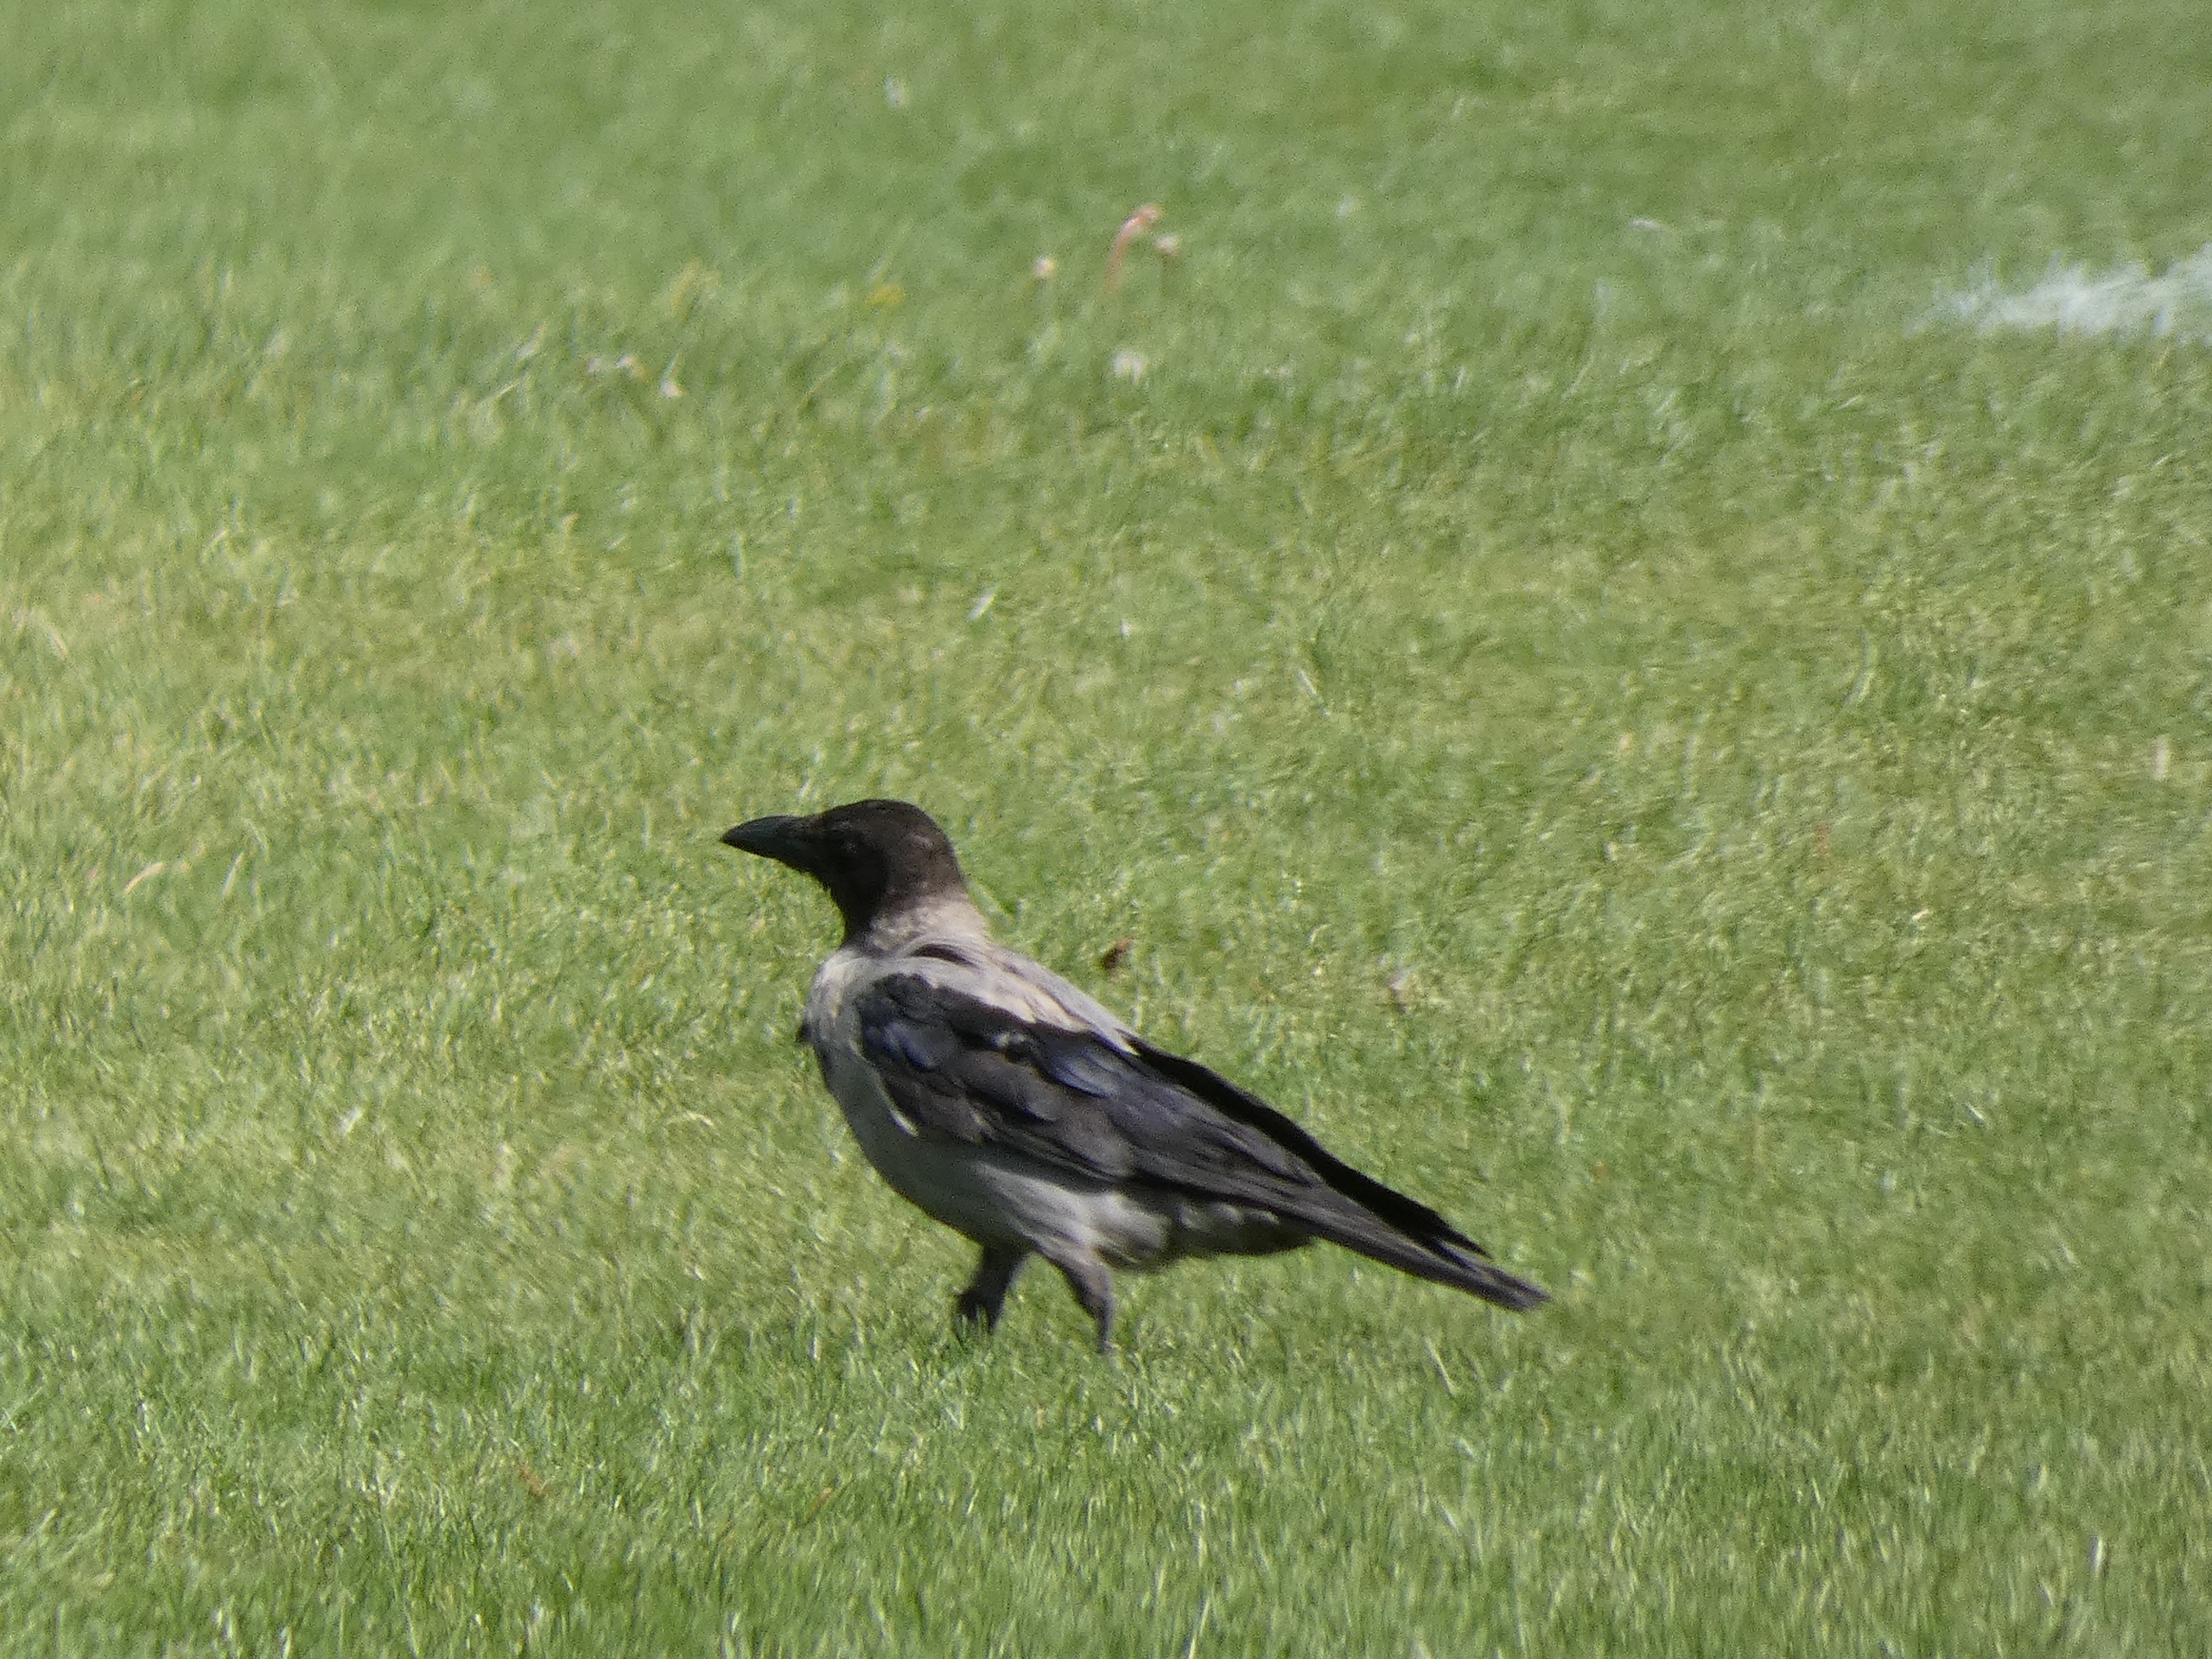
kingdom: Animalia
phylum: Chordata
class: Aves
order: Passeriformes
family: Corvidae
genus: Corvus
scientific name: Corvus cornix
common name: Gråkrage
